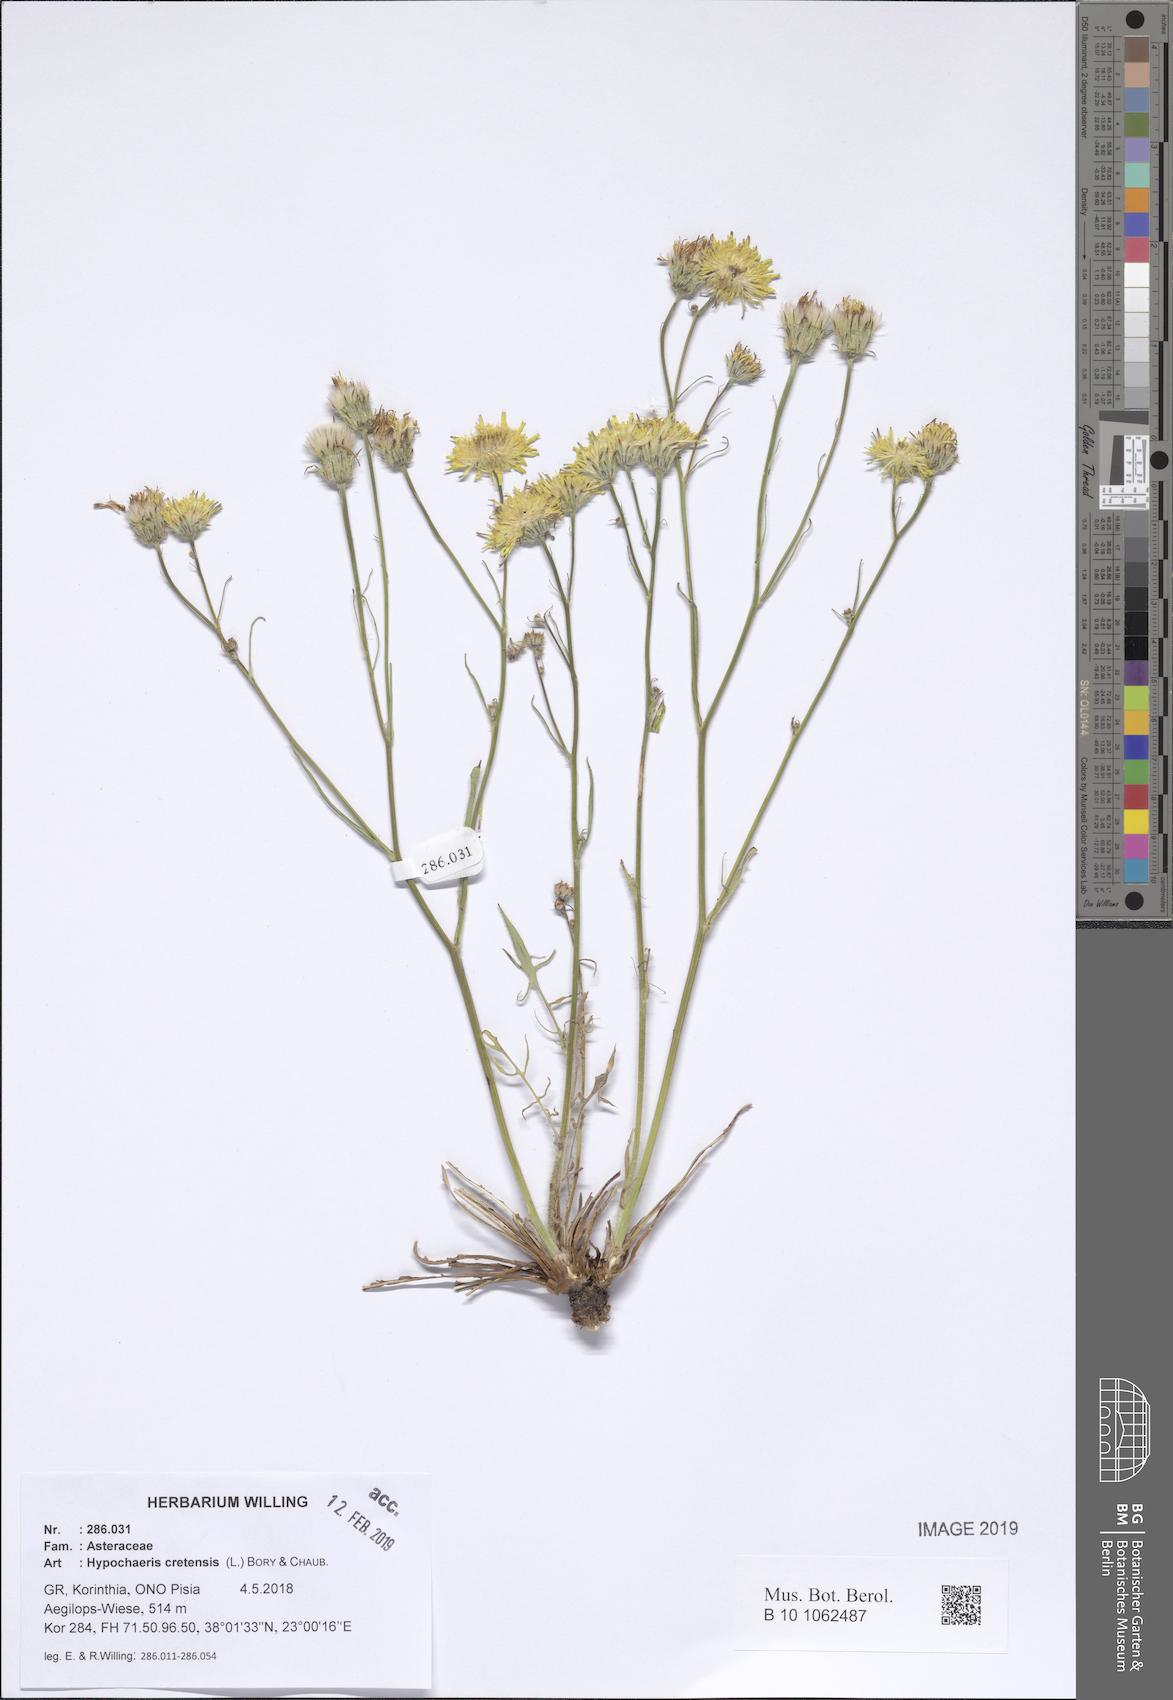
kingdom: Plantae
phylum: Tracheophyta
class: Magnoliopsida
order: Asterales
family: Asteraceae
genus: Hypochaeris
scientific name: Hypochaeris cretensis
